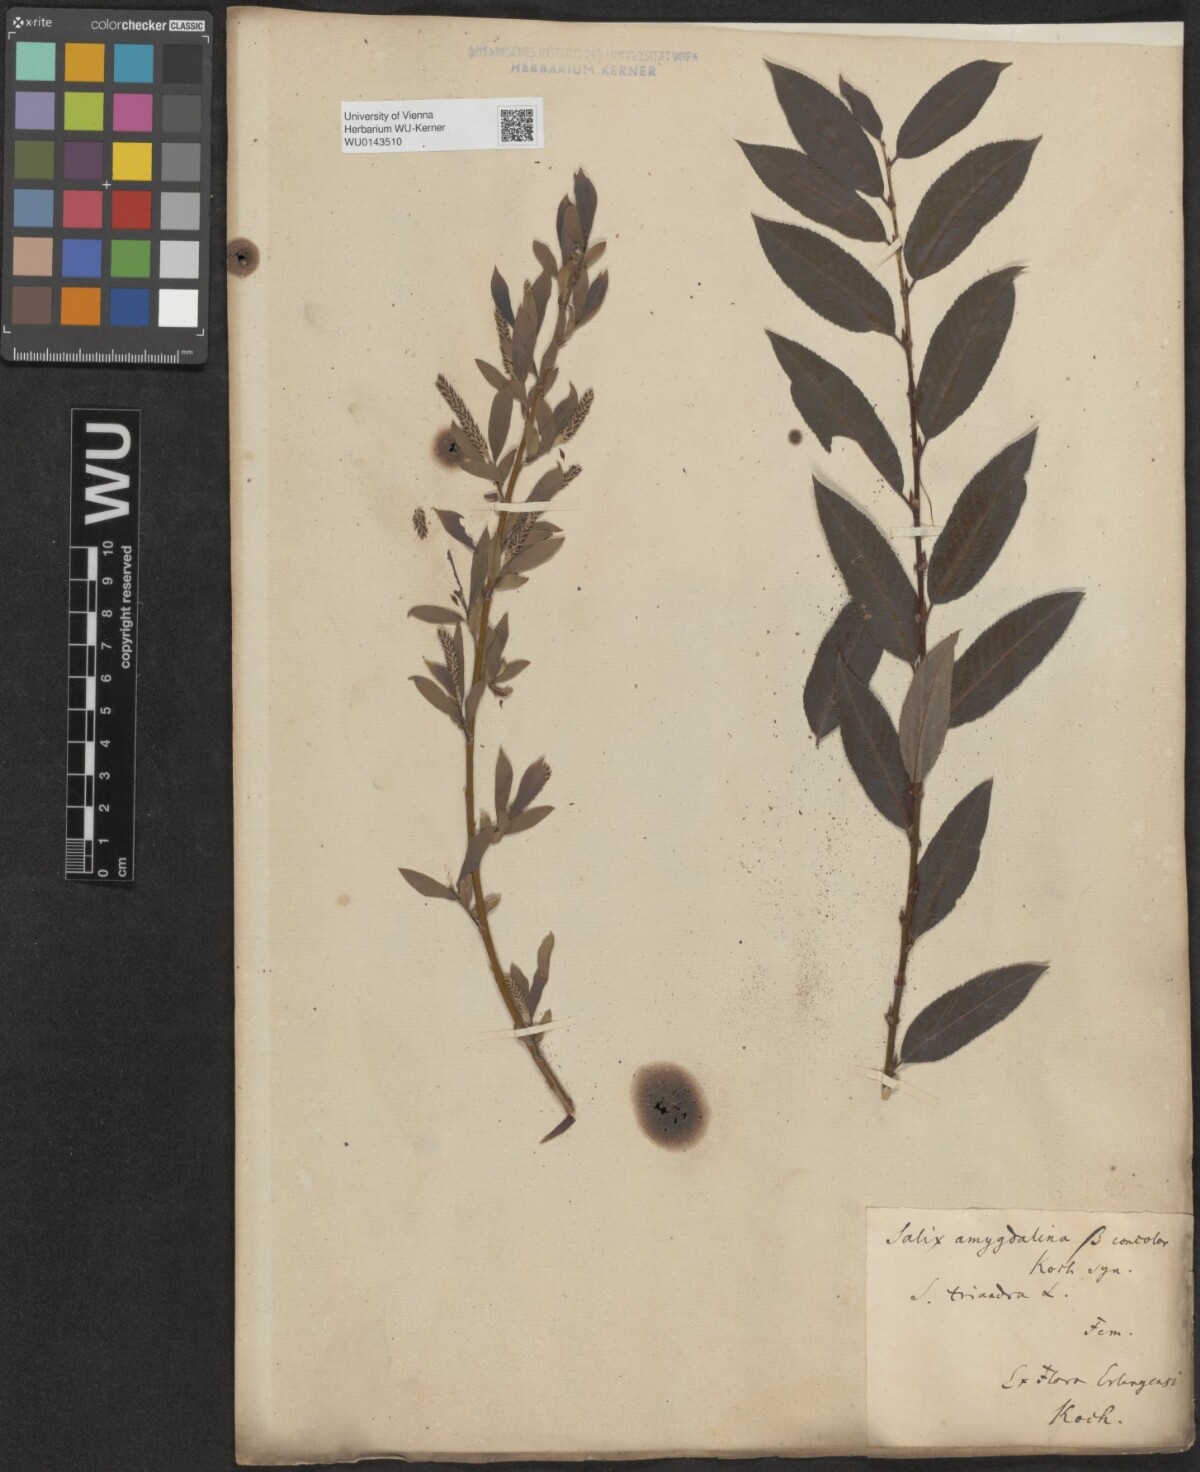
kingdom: Plantae
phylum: Tracheophyta
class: Magnoliopsida
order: Malpighiales
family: Salicaceae
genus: Salix
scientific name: Salix triandra
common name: Almond willow
